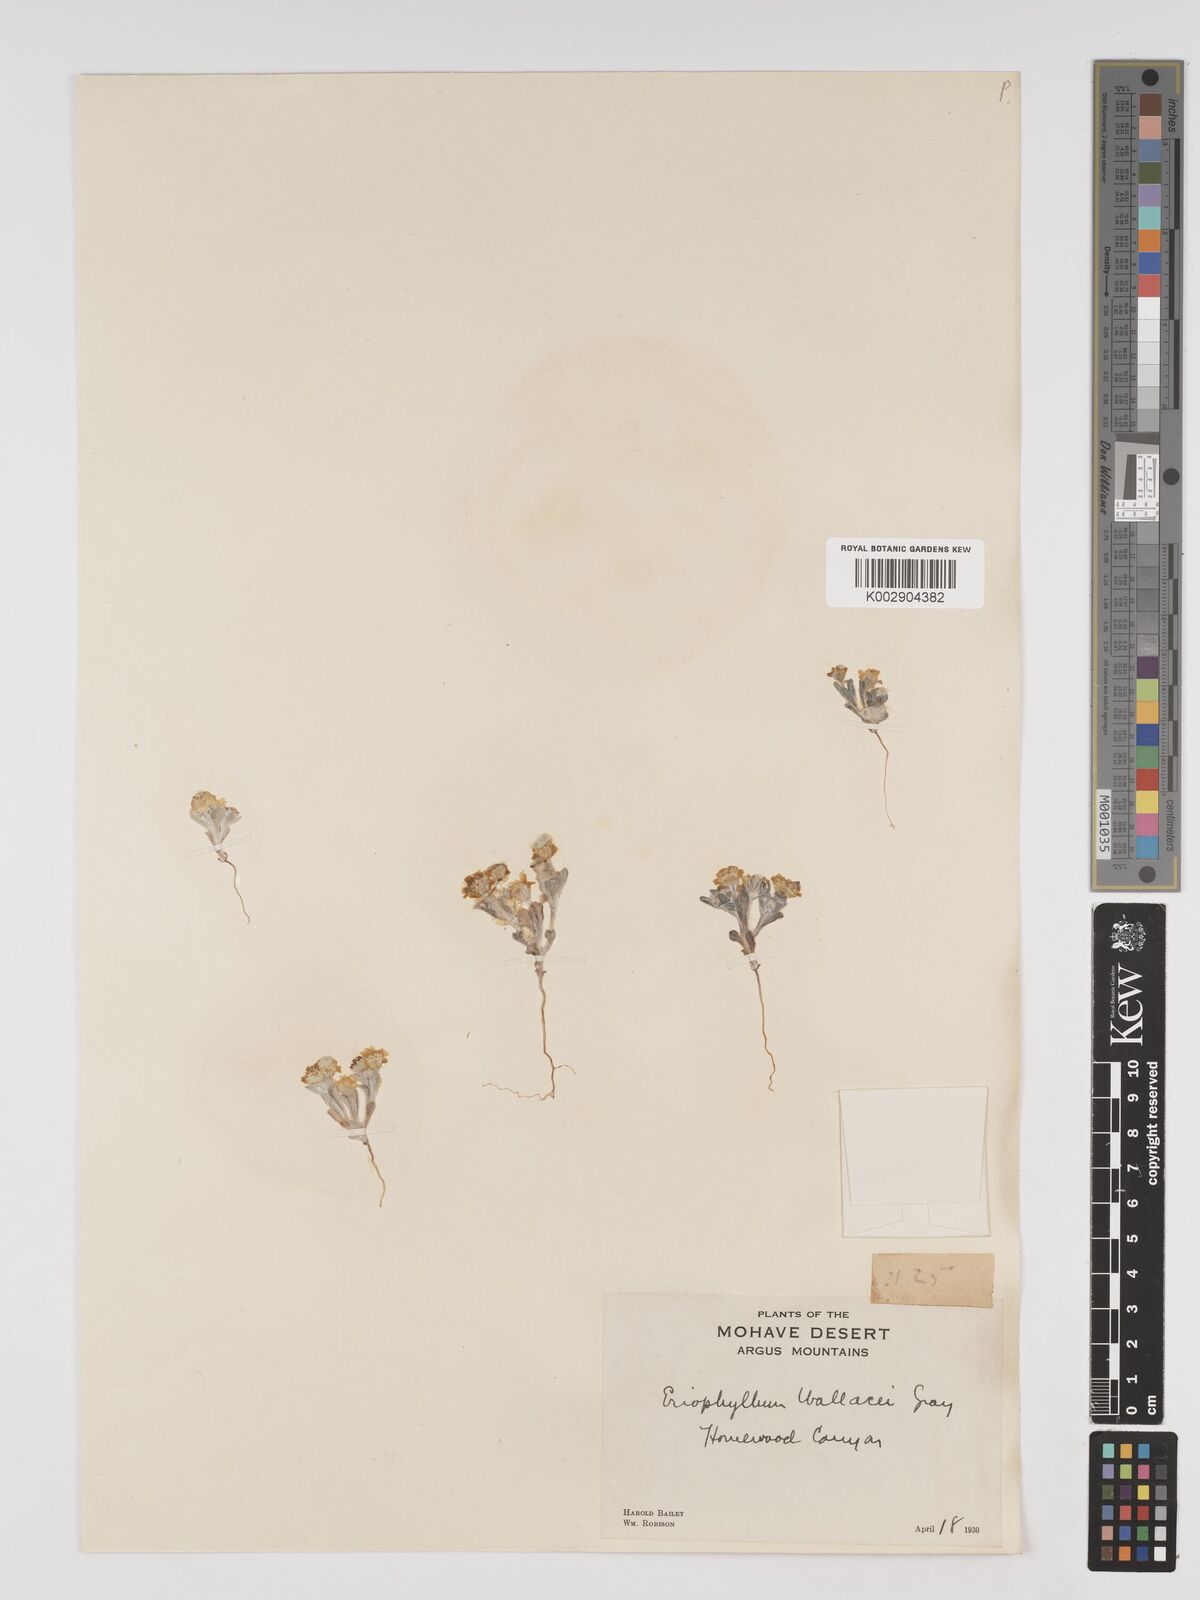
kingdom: Plantae
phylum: Tracheophyta
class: Magnoliopsida
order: Asterales
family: Asteraceae
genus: Eriophyllum
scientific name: Eriophyllum lanosum
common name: White easter-bonnets
